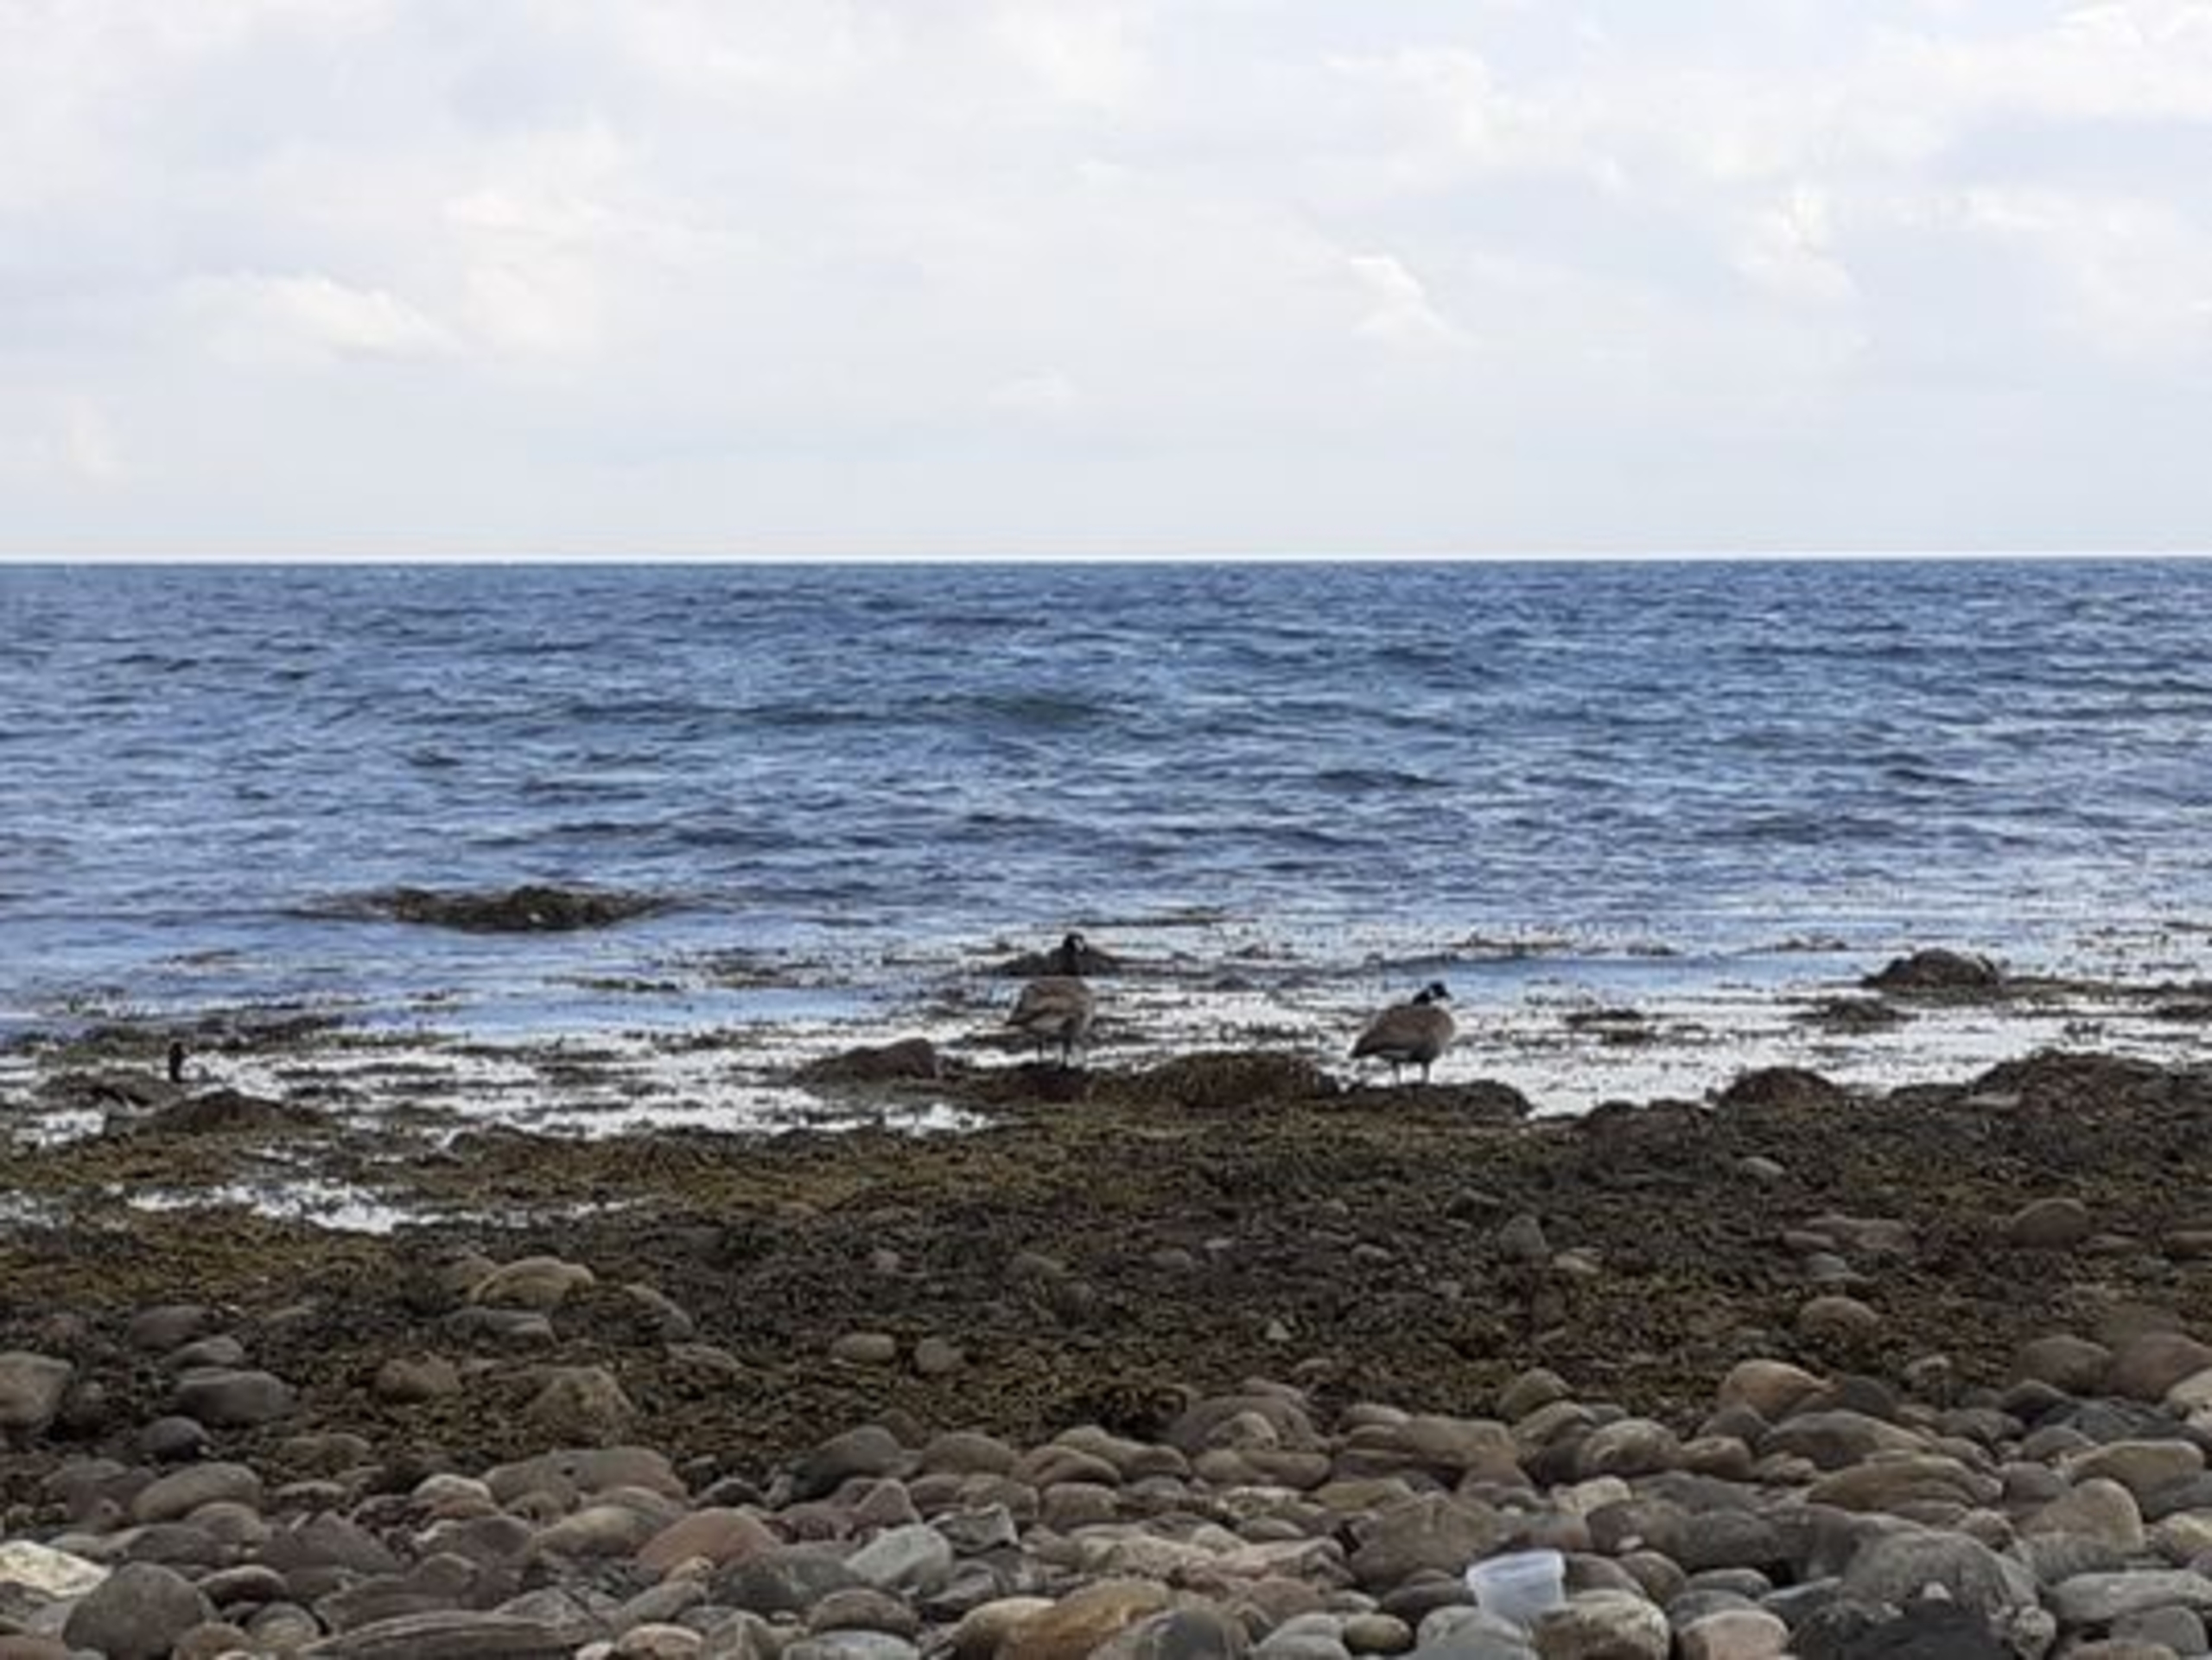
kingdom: Animalia
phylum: Chordata
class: Aves
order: Anseriformes
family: Anatidae
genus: Branta
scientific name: Branta canadensis
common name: Canadagås
